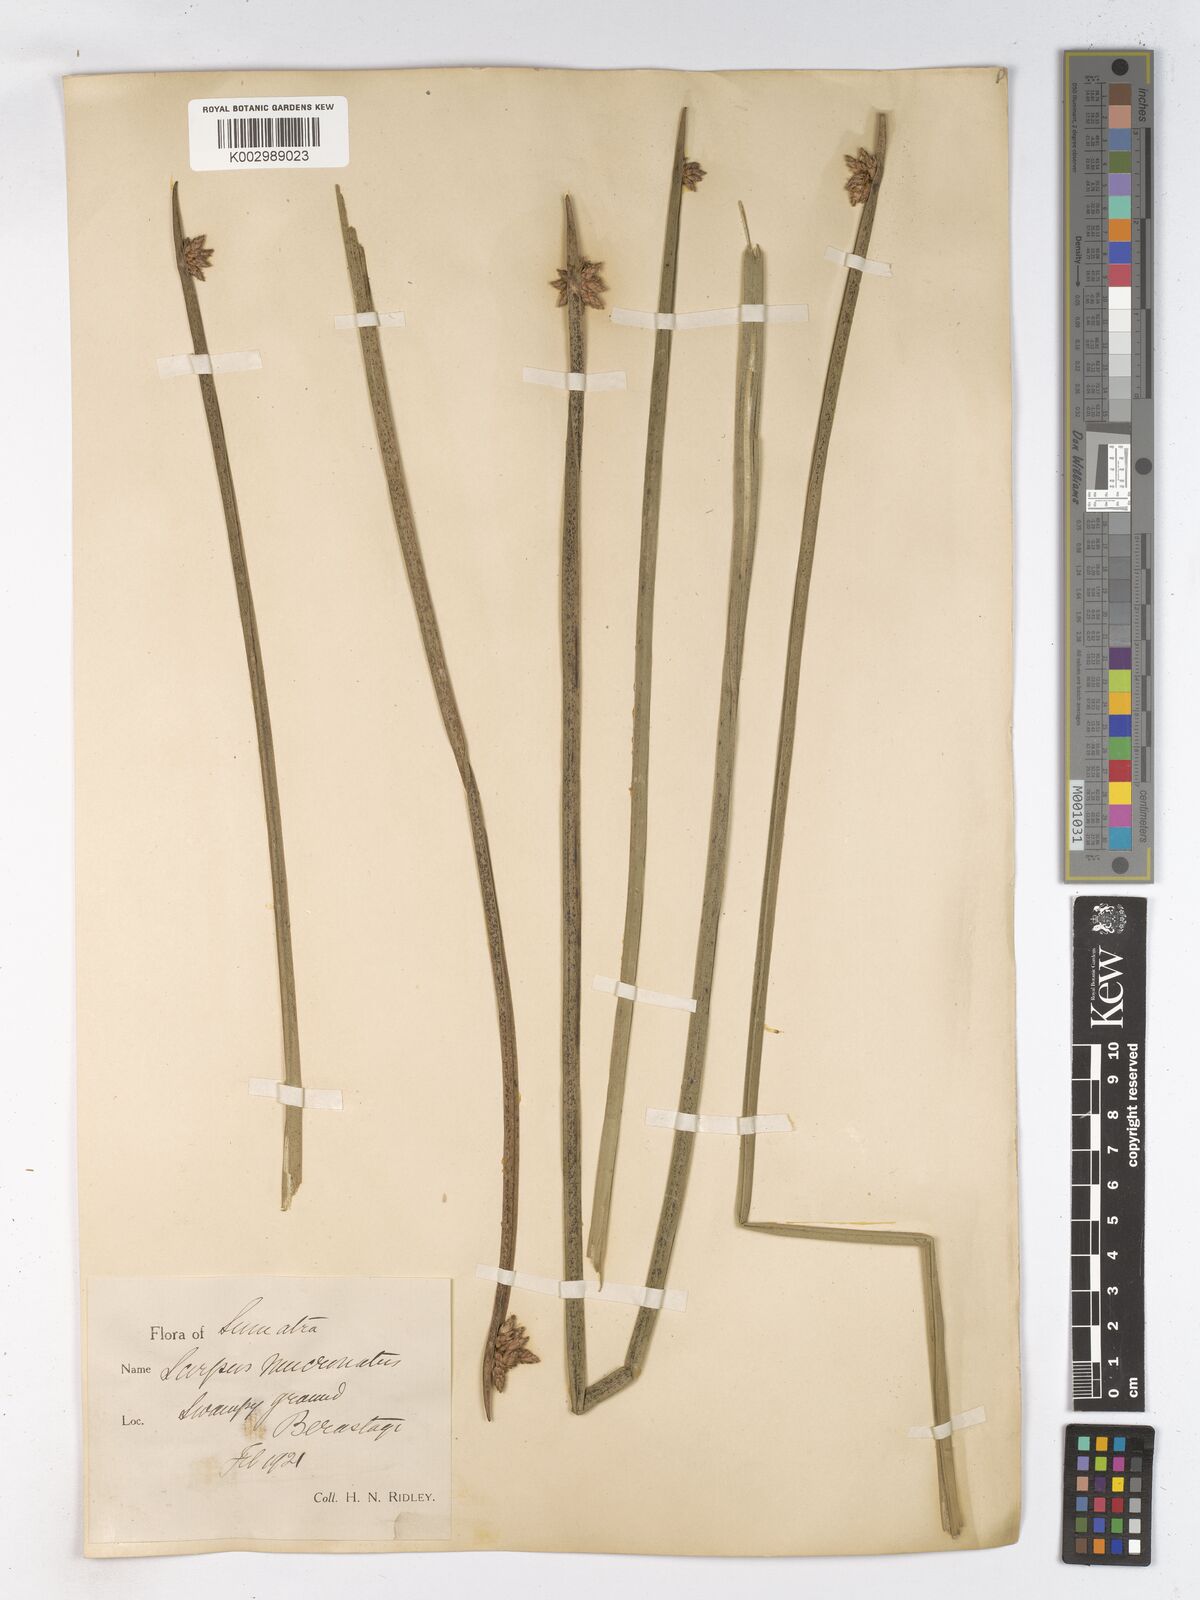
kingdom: Plantae
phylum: Tracheophyta
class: Liliopsida
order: Poales
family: Cyperaceae
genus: Schoenoplectiella
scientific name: Schoenoplectiella mucronata
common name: Bog bulrush
